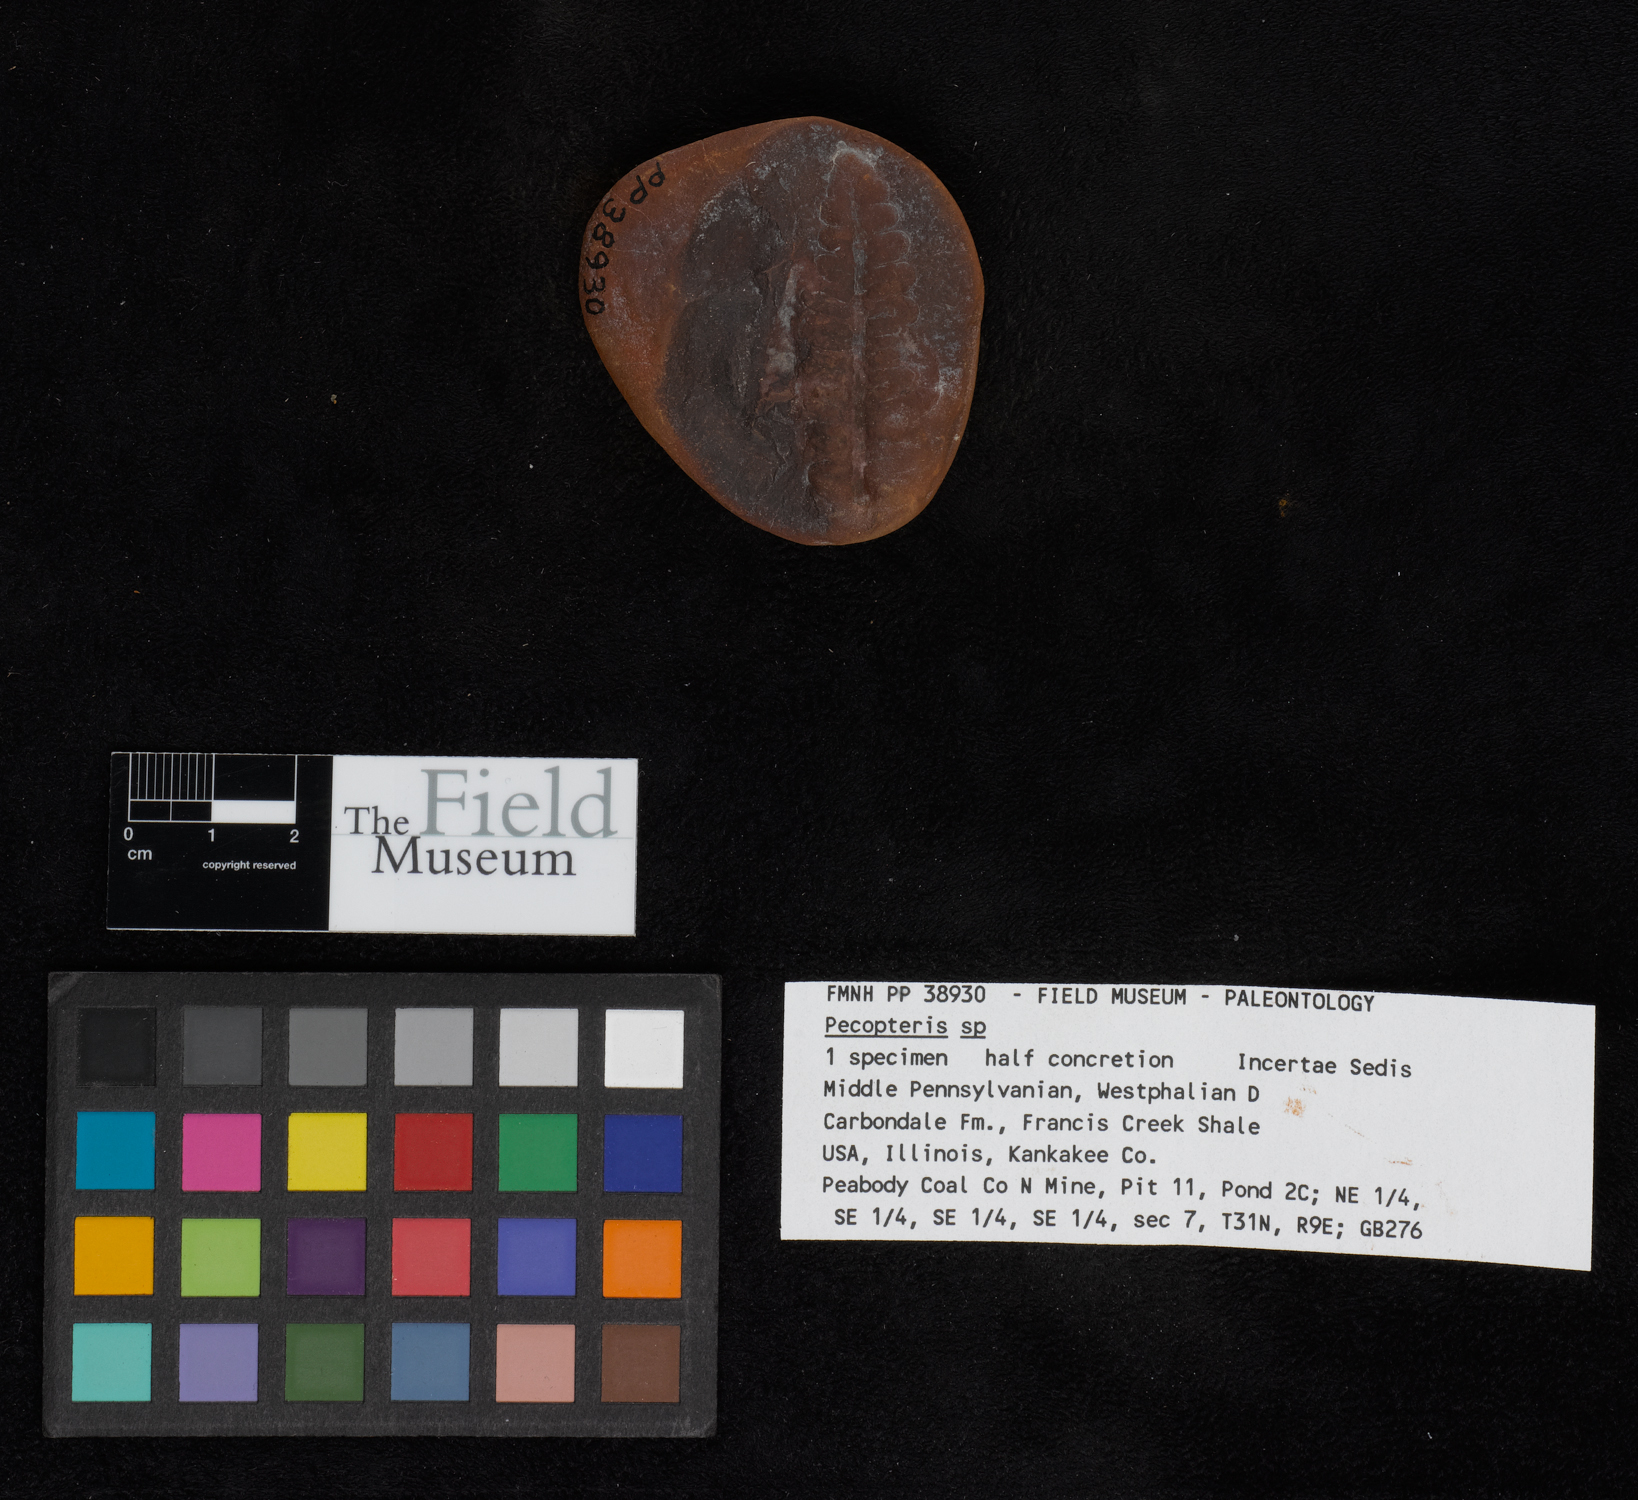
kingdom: Plantae
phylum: Tracheophyta
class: Polypodiopsida
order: Marattiales
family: Asterothecaceae
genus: Pecopteris
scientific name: Pecopteris
